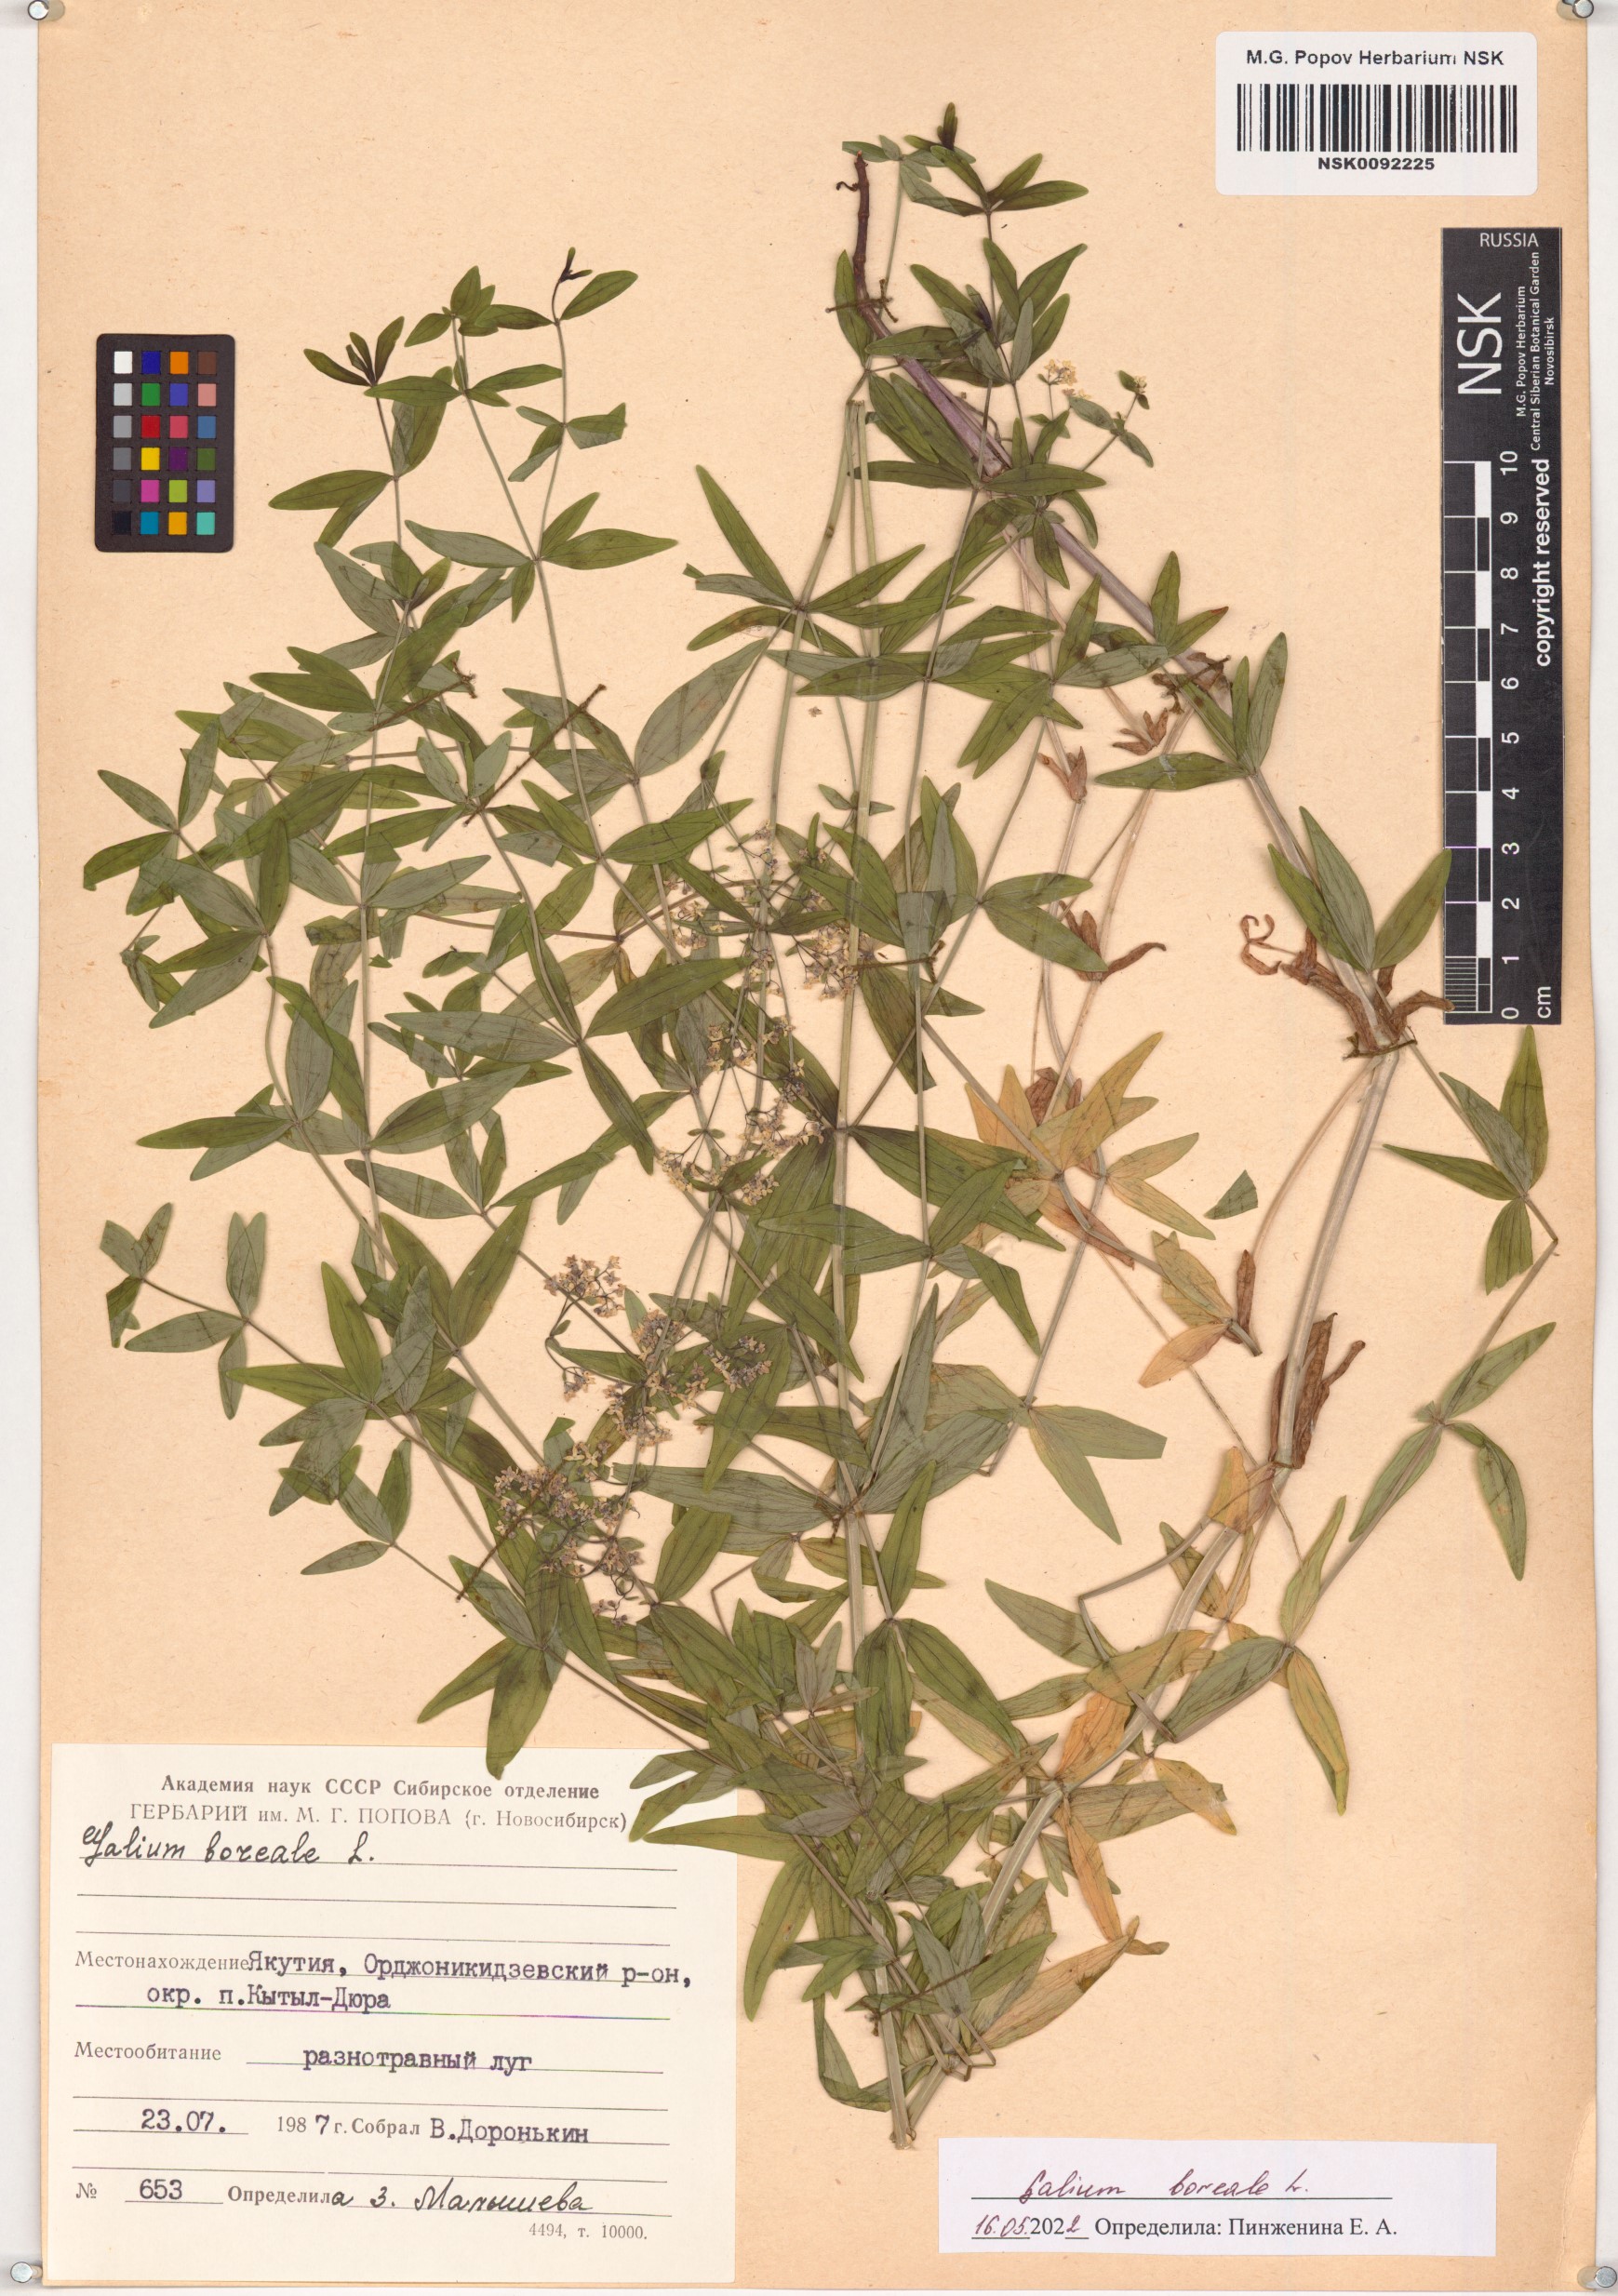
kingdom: Plantae
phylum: Tracheophyta
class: Magnoliopsida
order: Gentianales
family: Rubiaceae
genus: Galium
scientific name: Galium boreale
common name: Northern bedstraw
